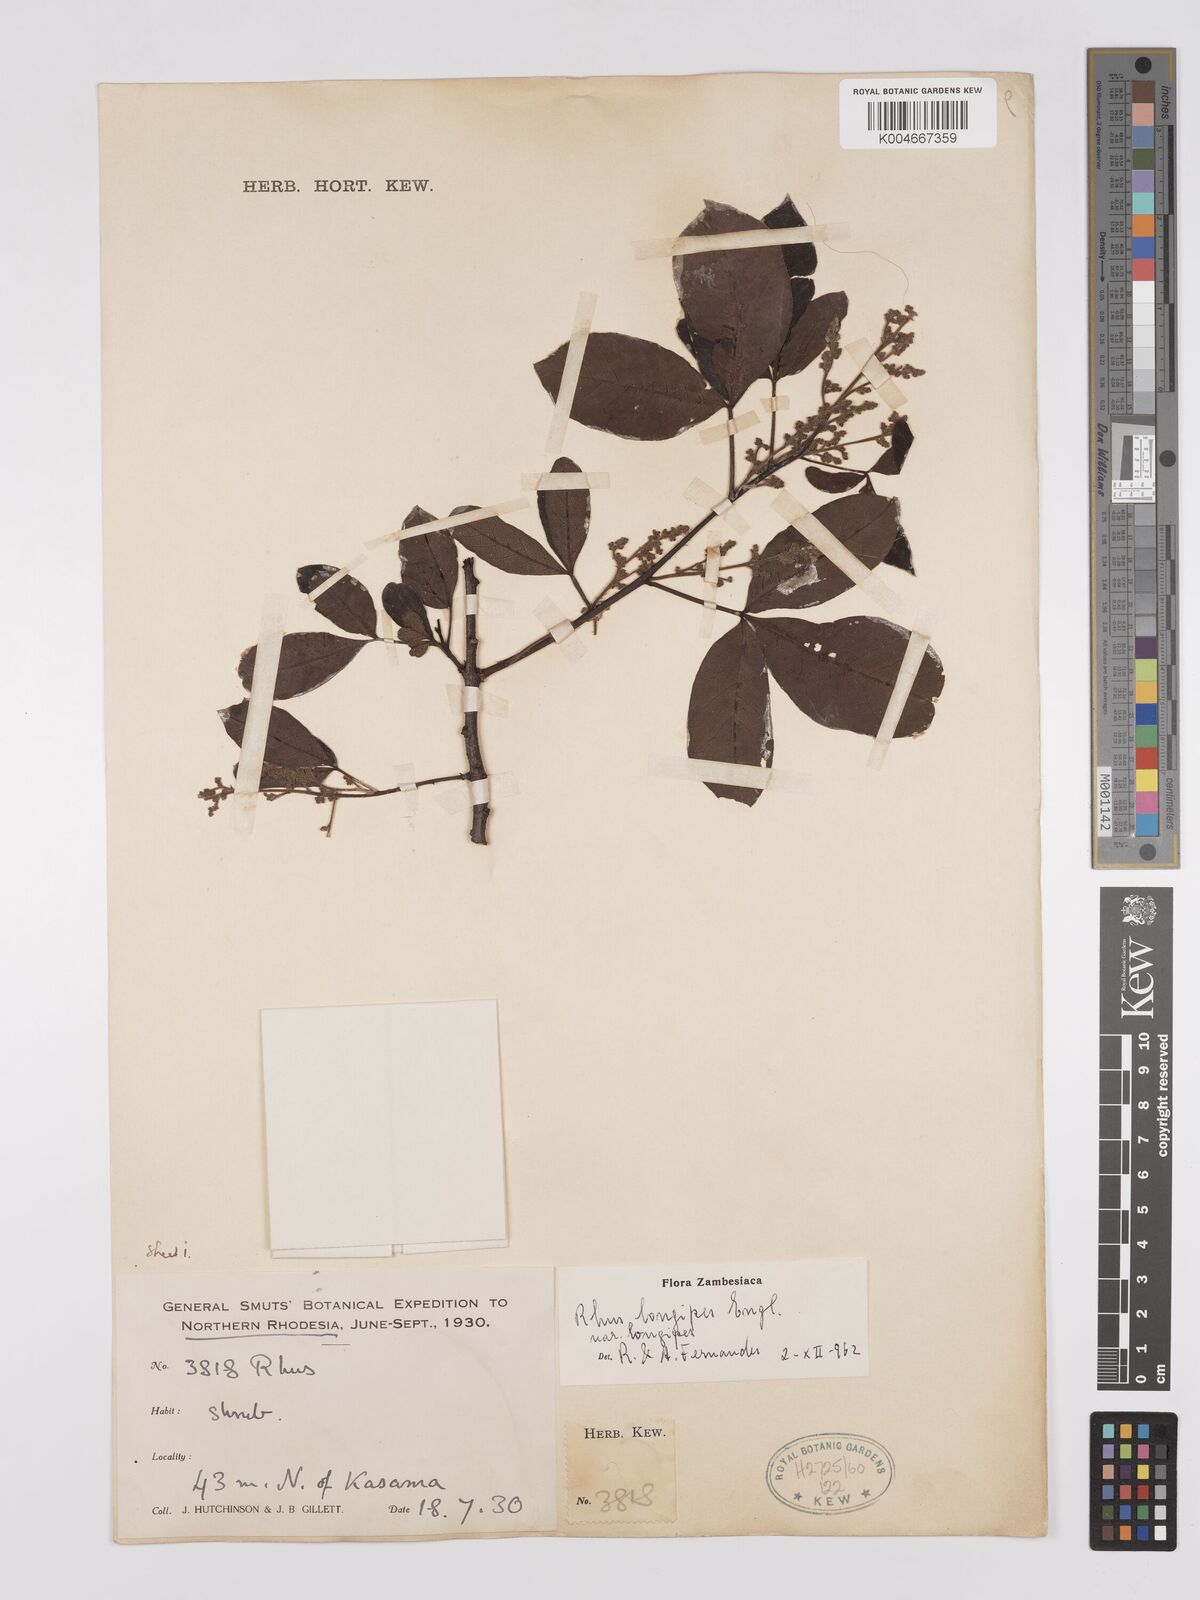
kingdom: Plantae
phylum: Tracheophyta
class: Magnoliopsida
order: Sapindales
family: Anacardiaceae
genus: Searsia
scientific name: Searsia longipes
